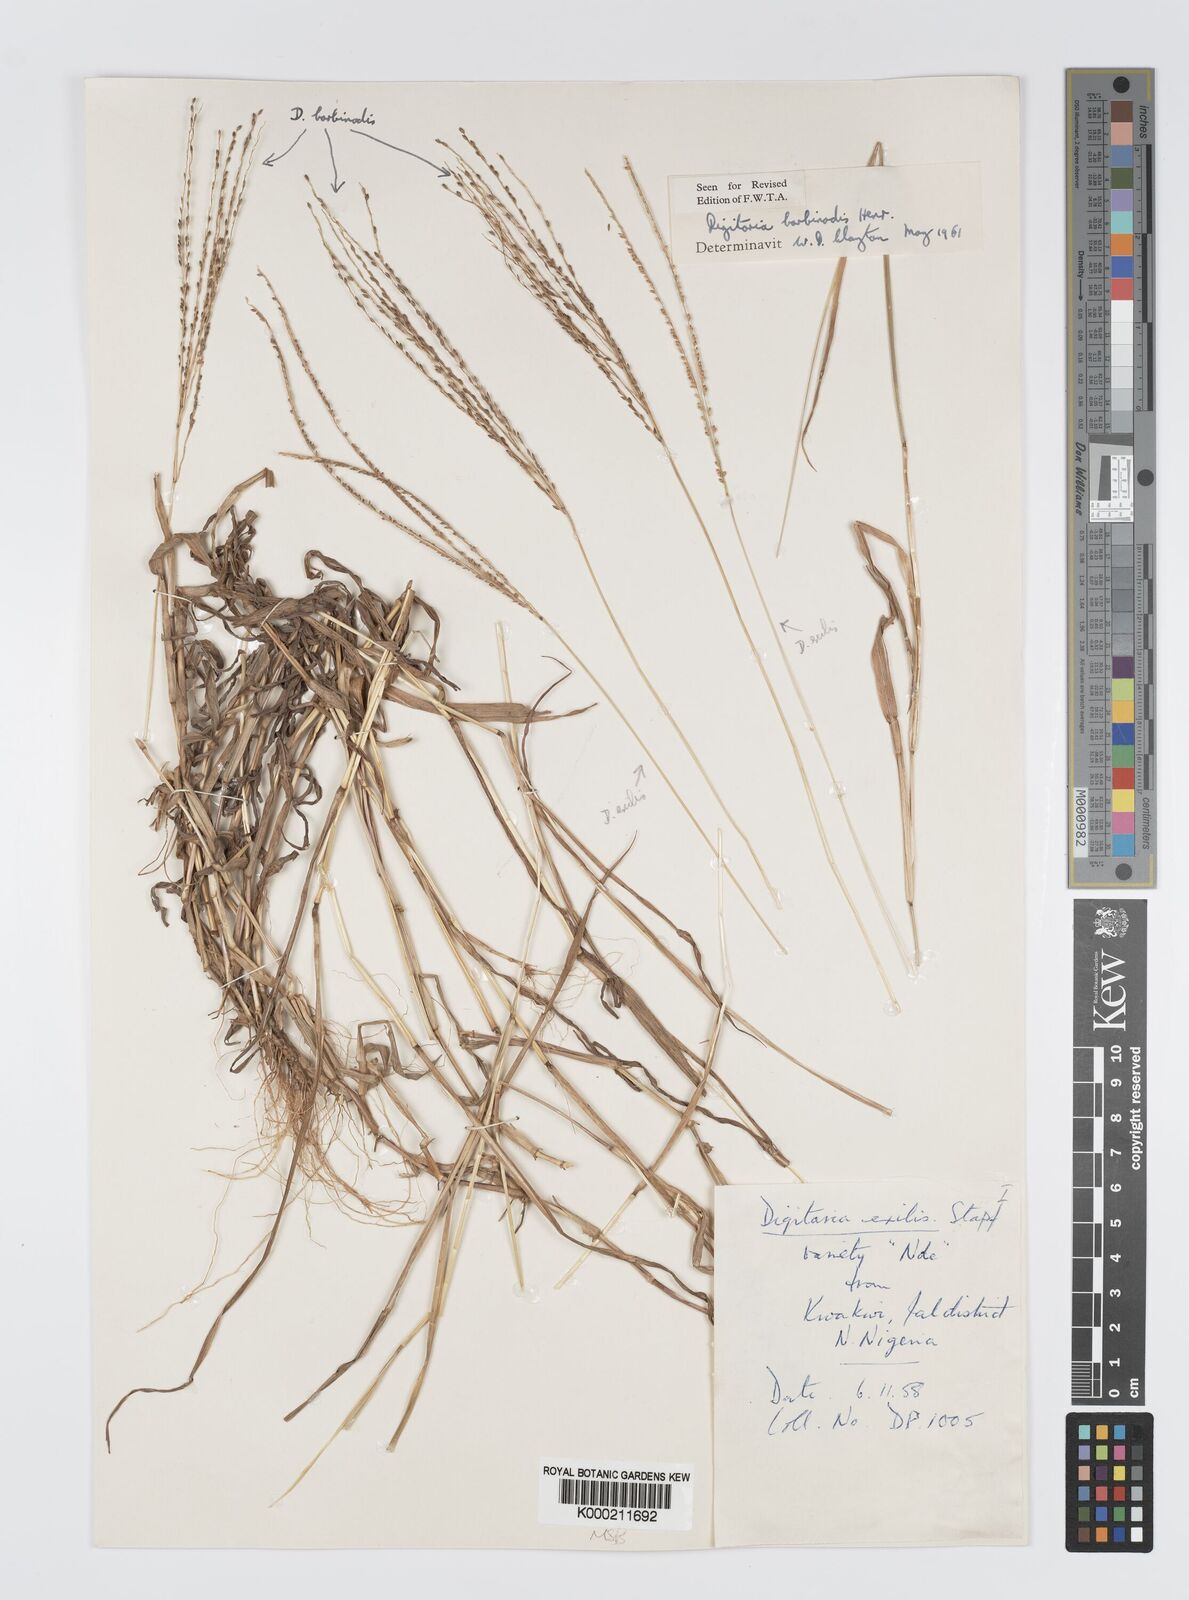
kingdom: Plantae
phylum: Tracheophyta
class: Liliopsida
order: Poales
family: Poaceae
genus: Digitaria
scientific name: Digitaria barbinodis
